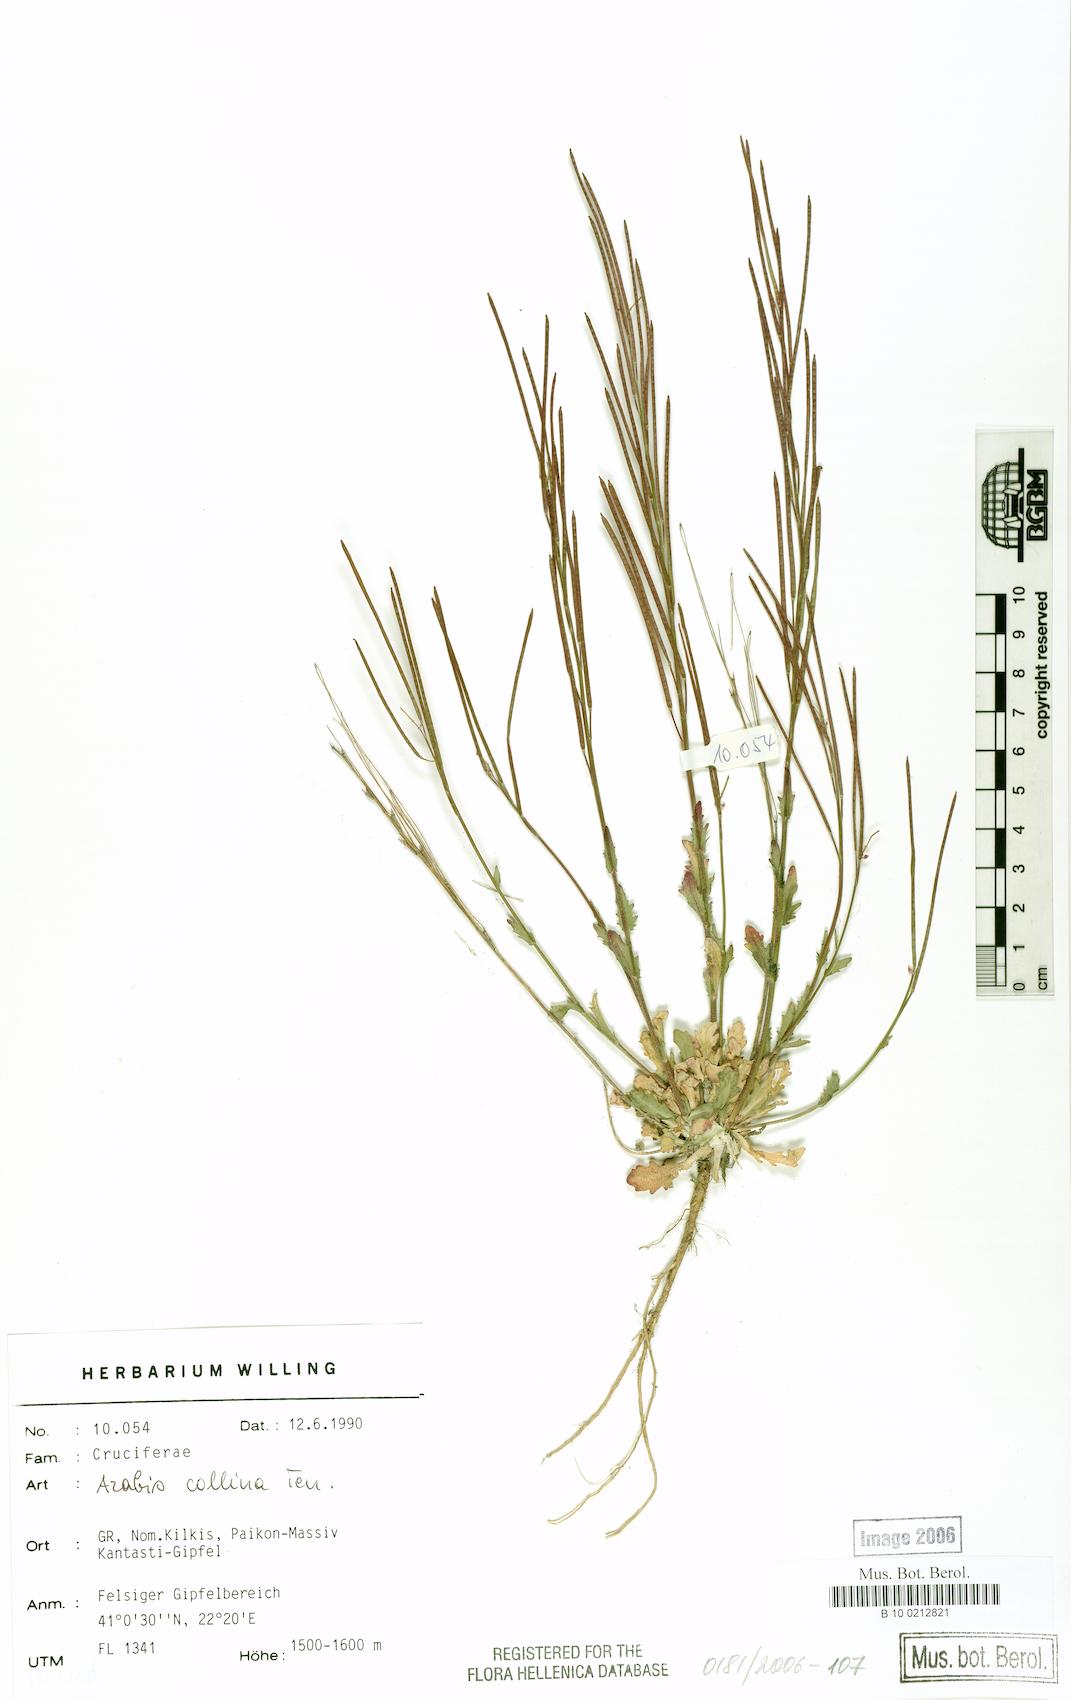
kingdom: Plantae
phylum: Tracheophyta
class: Magnoliopsida
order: Brassicales
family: Brassicaceae
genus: Arabis
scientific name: Arabis collina
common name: Rosy cress
